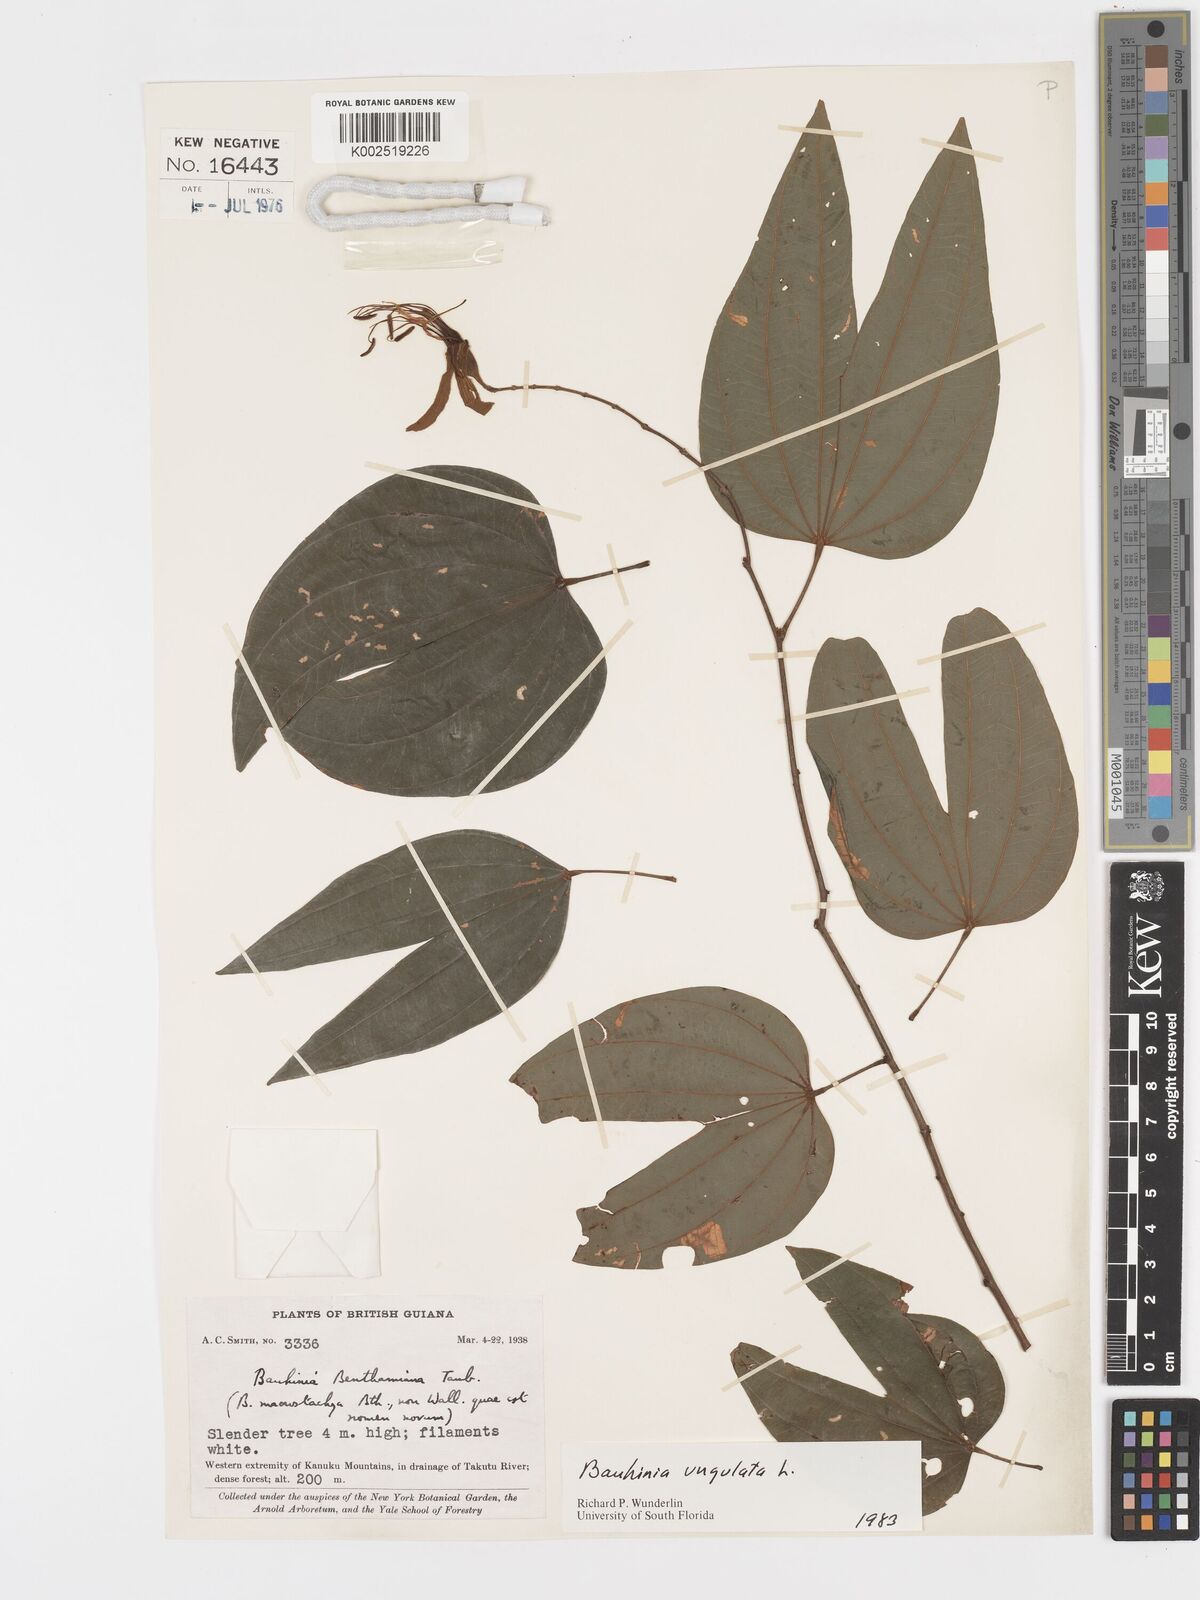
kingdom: Plantae
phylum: Tracheophyta
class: Magnoliopsida
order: Fabales
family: Fabaceae
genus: Bauhinia
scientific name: Bauhinia ungulata
